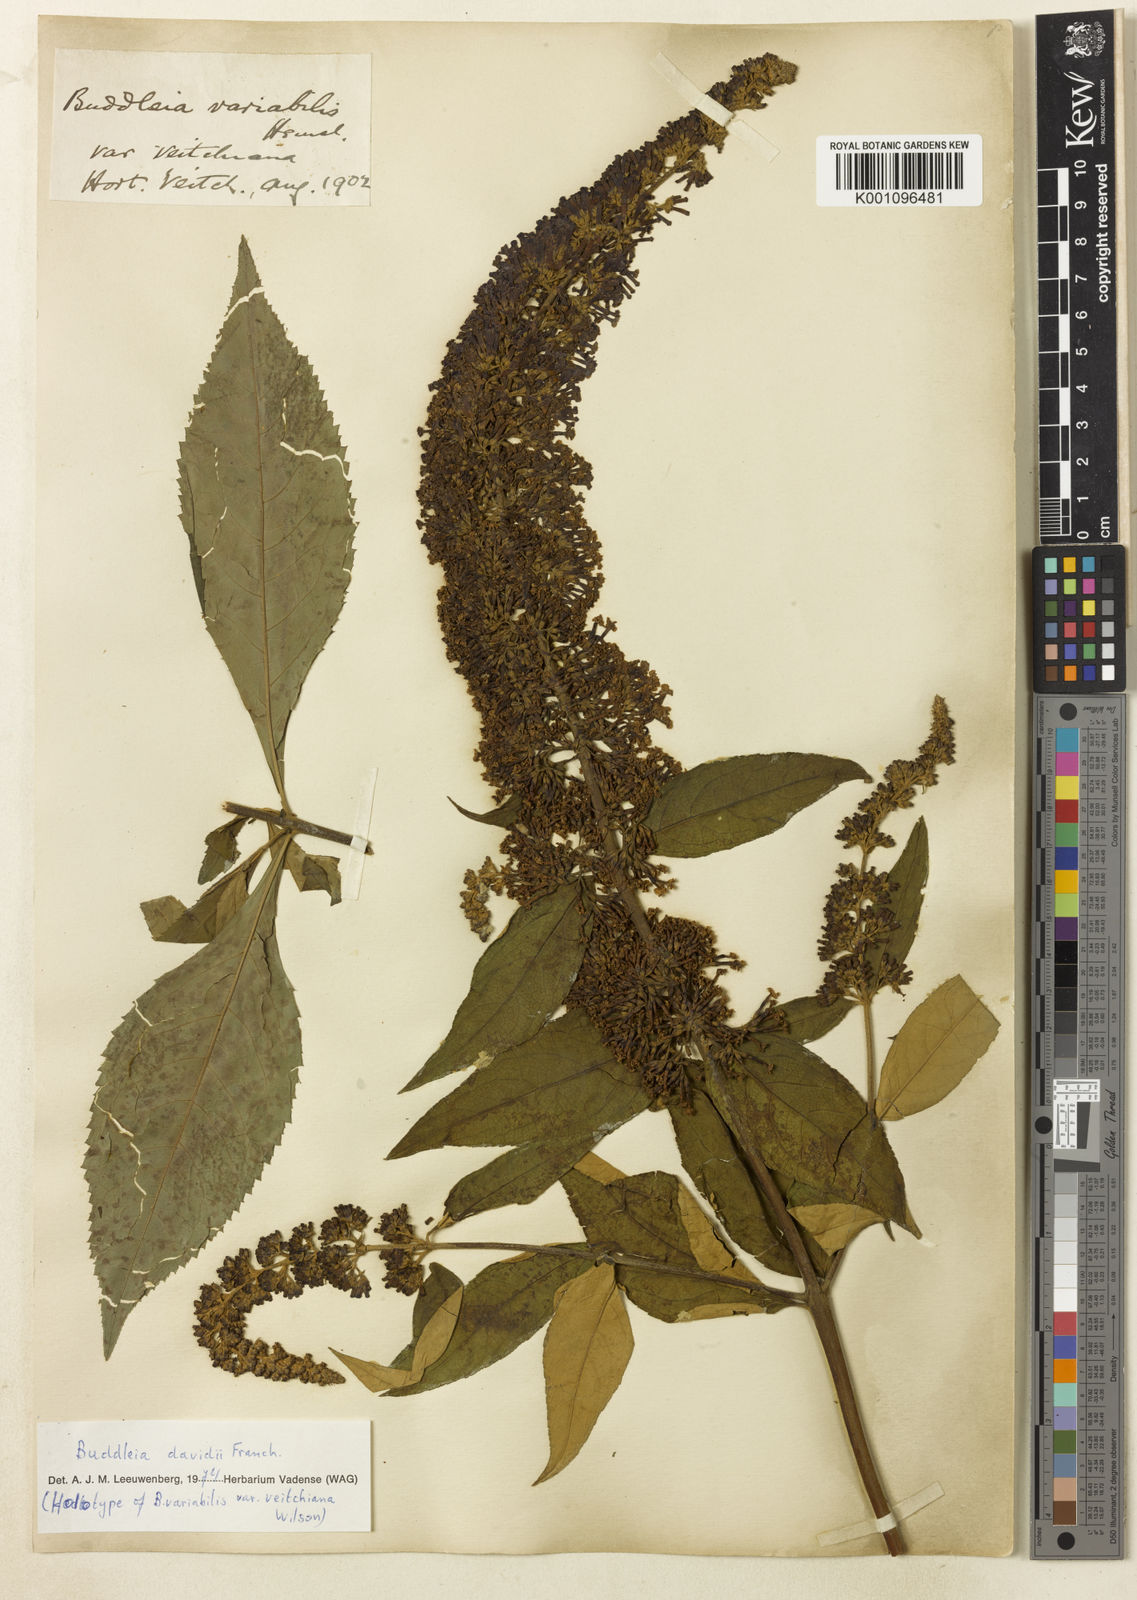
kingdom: Plantae
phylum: Tracheophyta
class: Magnoliopsida
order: Lamiales
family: Scrophulariaceae
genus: Buddleja
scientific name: Buddleja davidii
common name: Butterfly-bush
